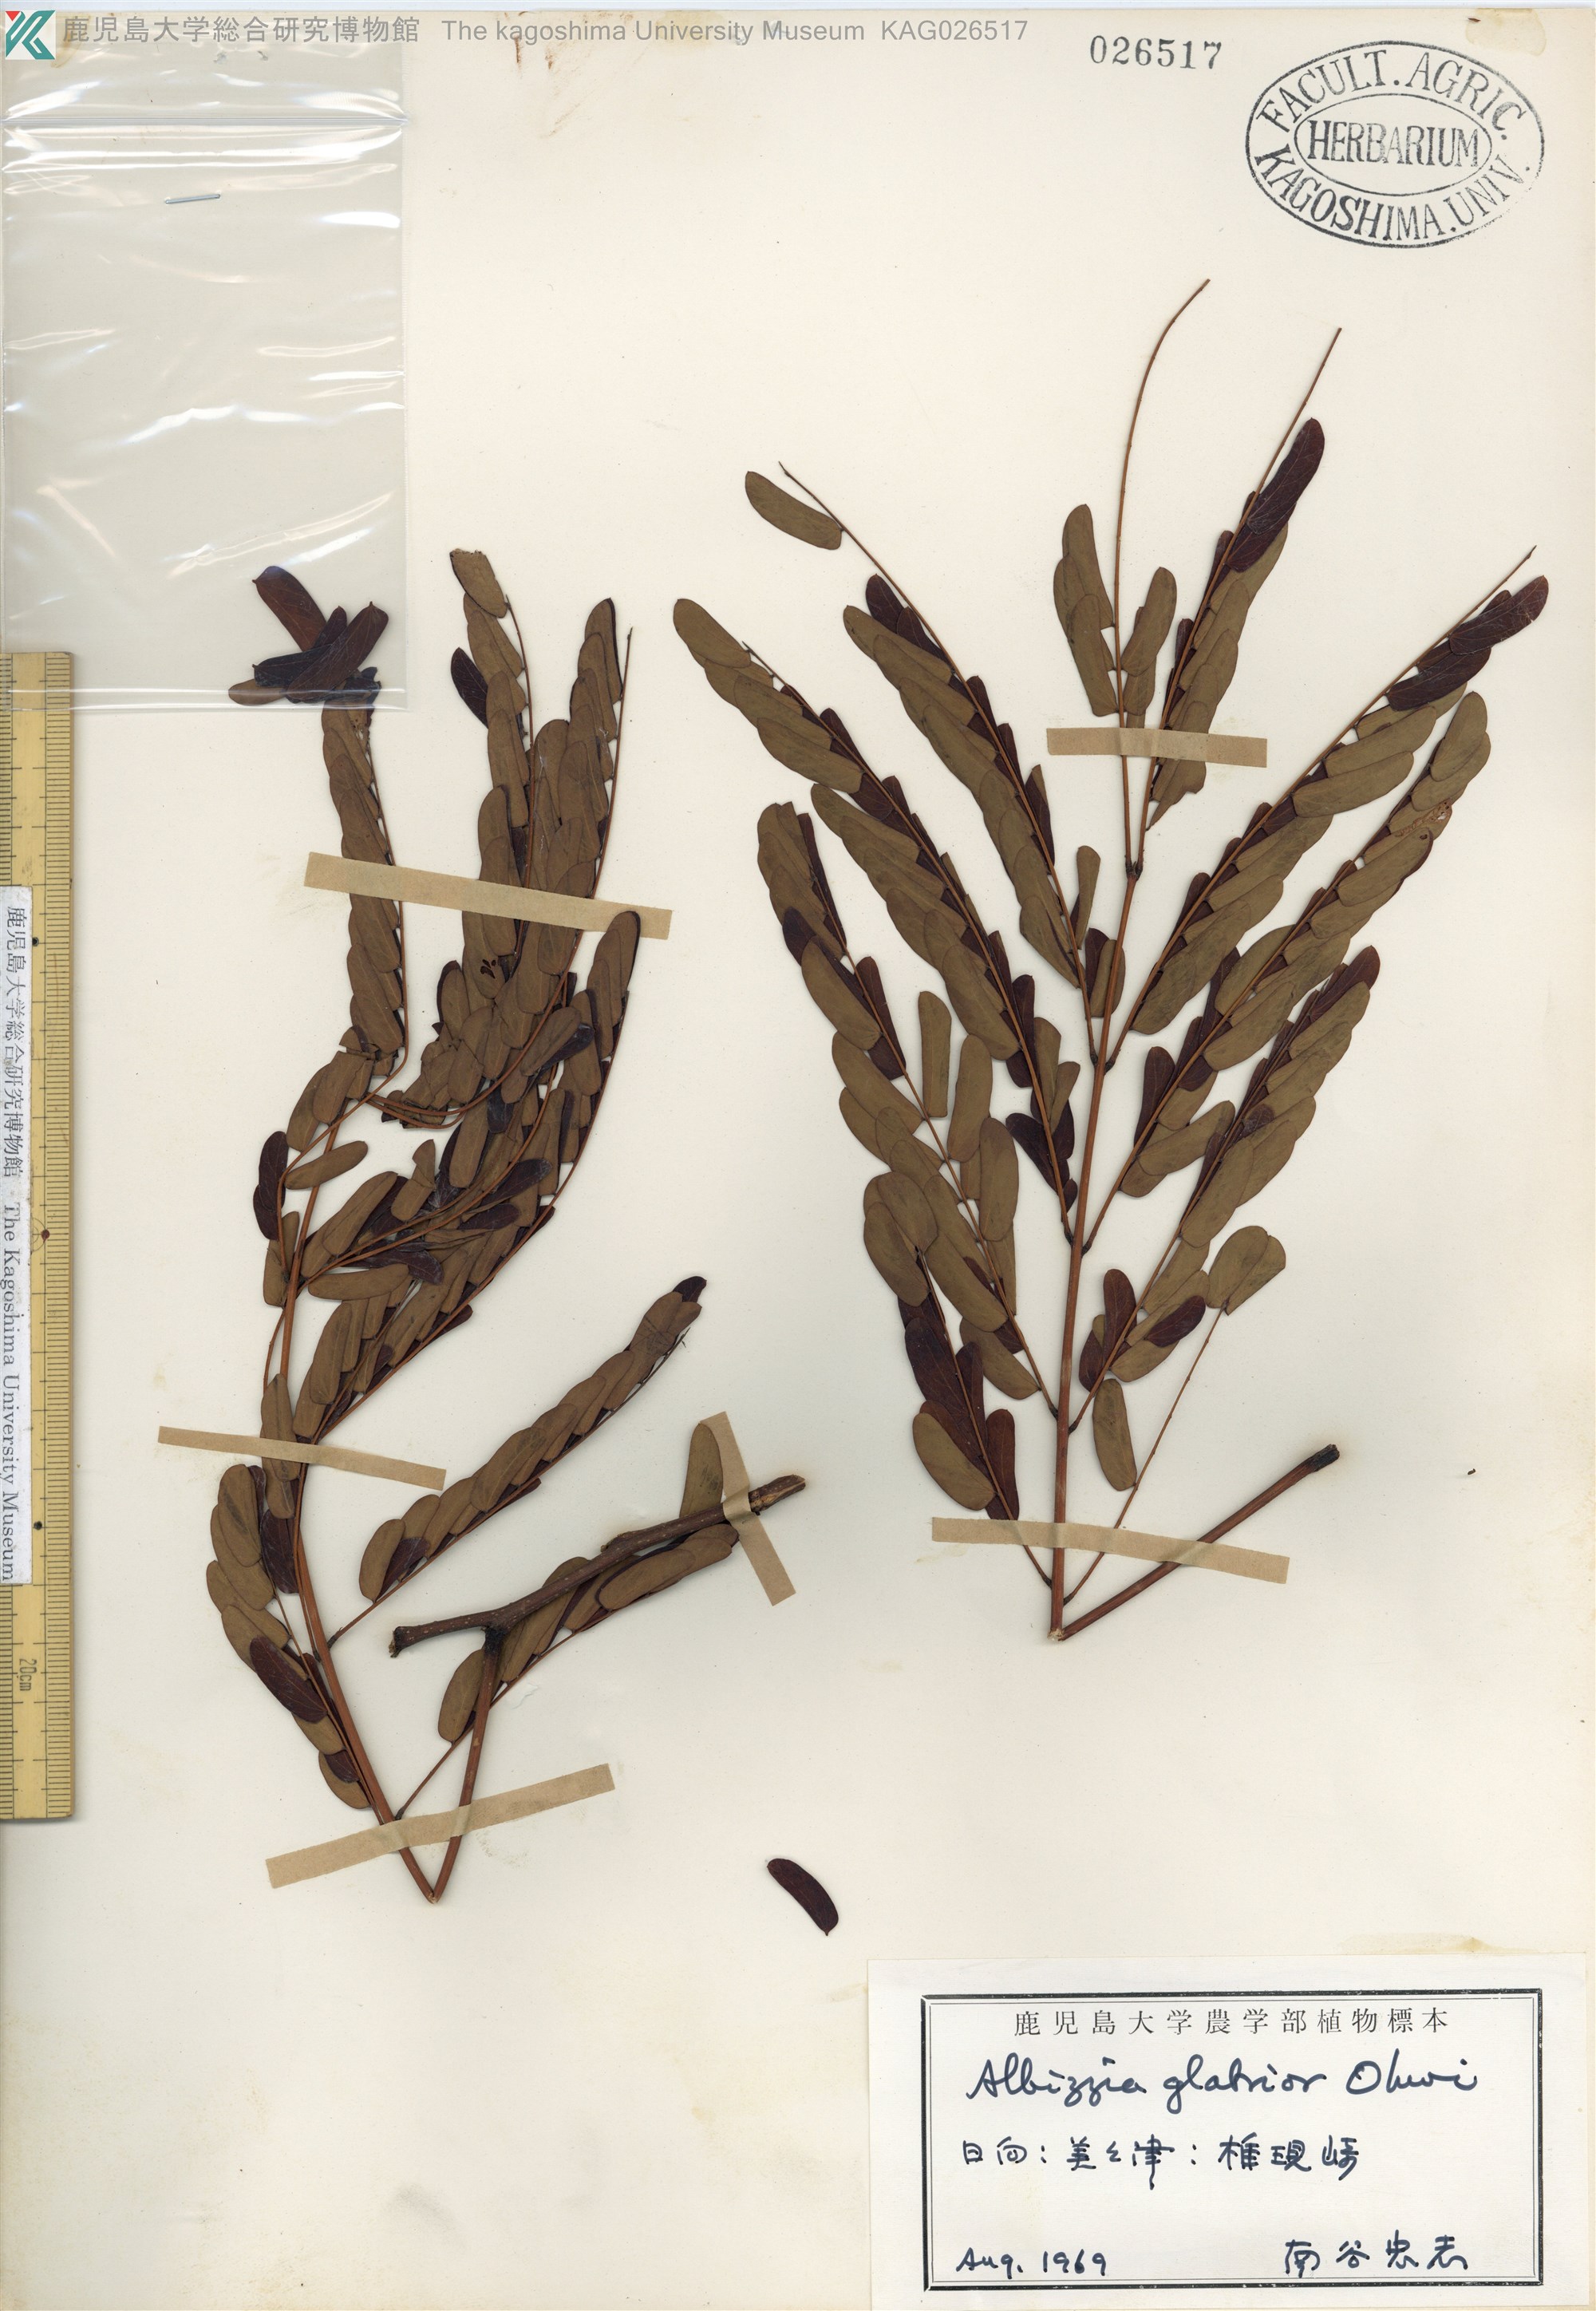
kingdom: Plantae
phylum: Tracheophyta
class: Magnoliopsida
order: Fabales
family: Fabaceae
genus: Albizia
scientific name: Albizia kalkora
